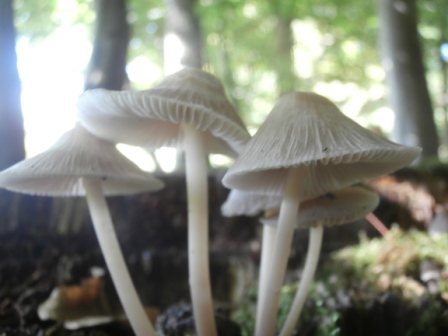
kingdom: Fungi
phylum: Basidiomycota
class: Agaricomycetes
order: Agaricales
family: Mycenaceae
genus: Mycena
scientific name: Mycena galericulata
